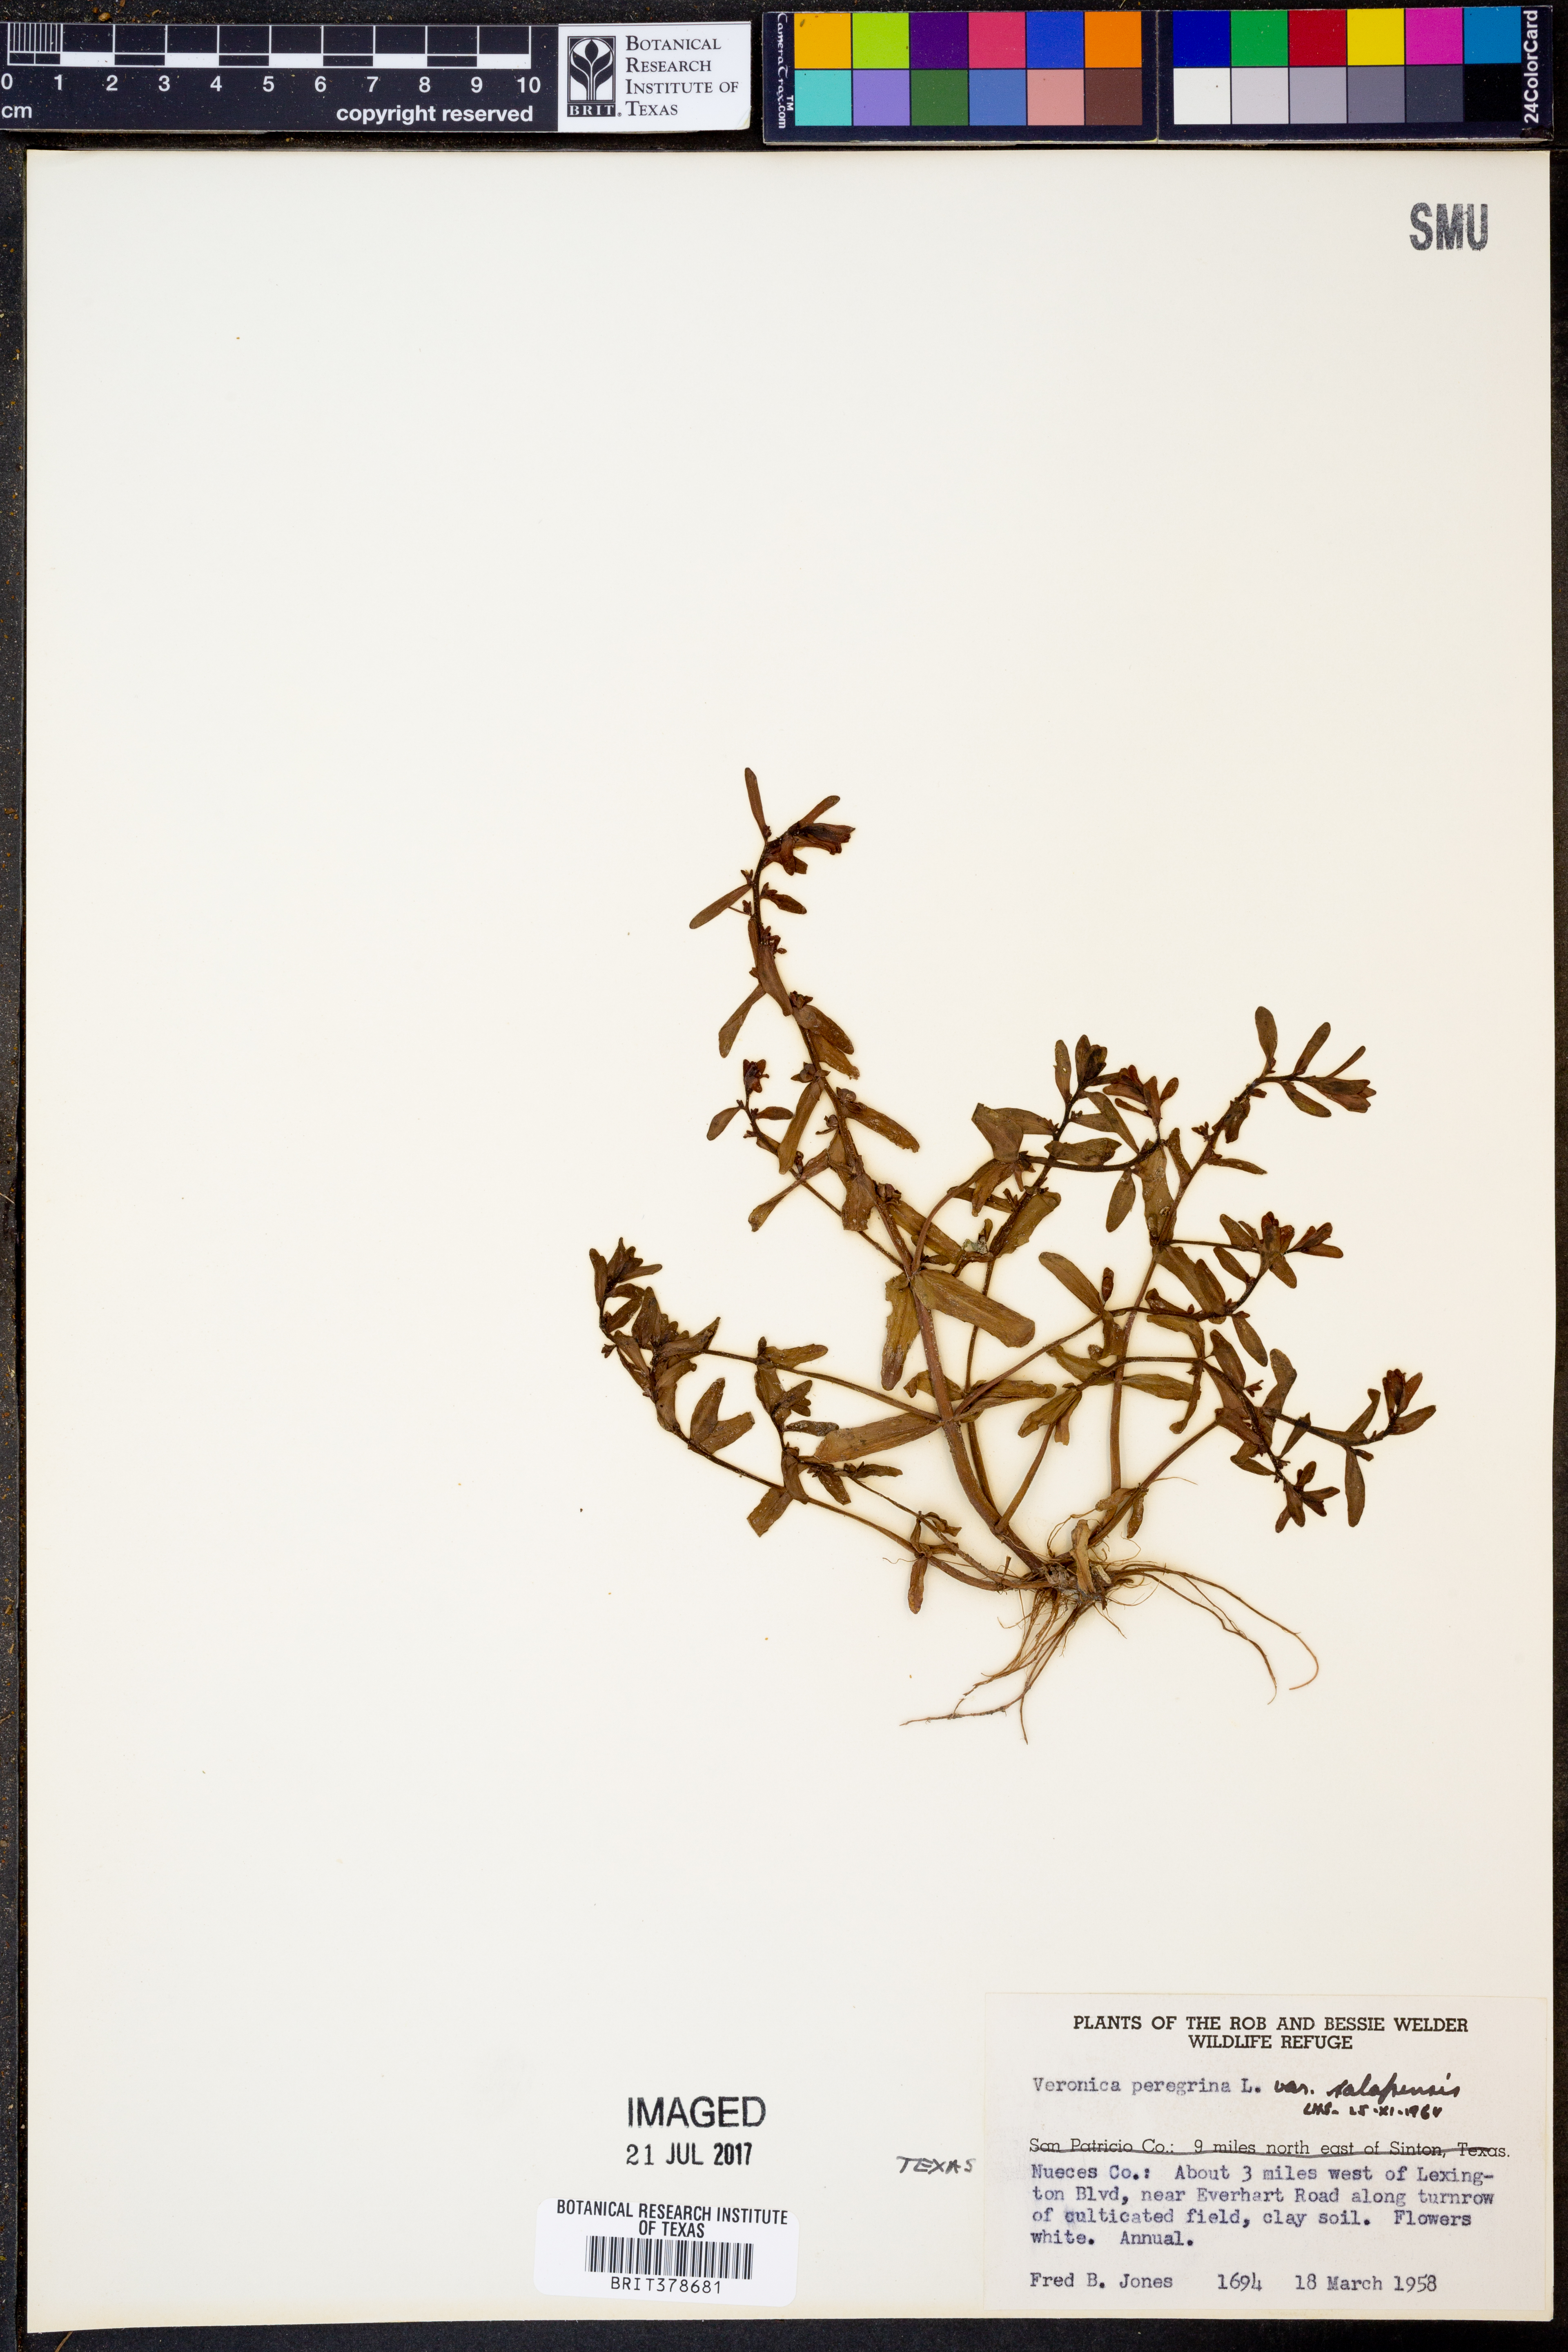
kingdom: Plantae
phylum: Tracheophyta
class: Magnoliopsida
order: Lamiales
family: Plantaginaceae
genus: Veronica
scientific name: Veronica peregrina
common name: Neckweed
